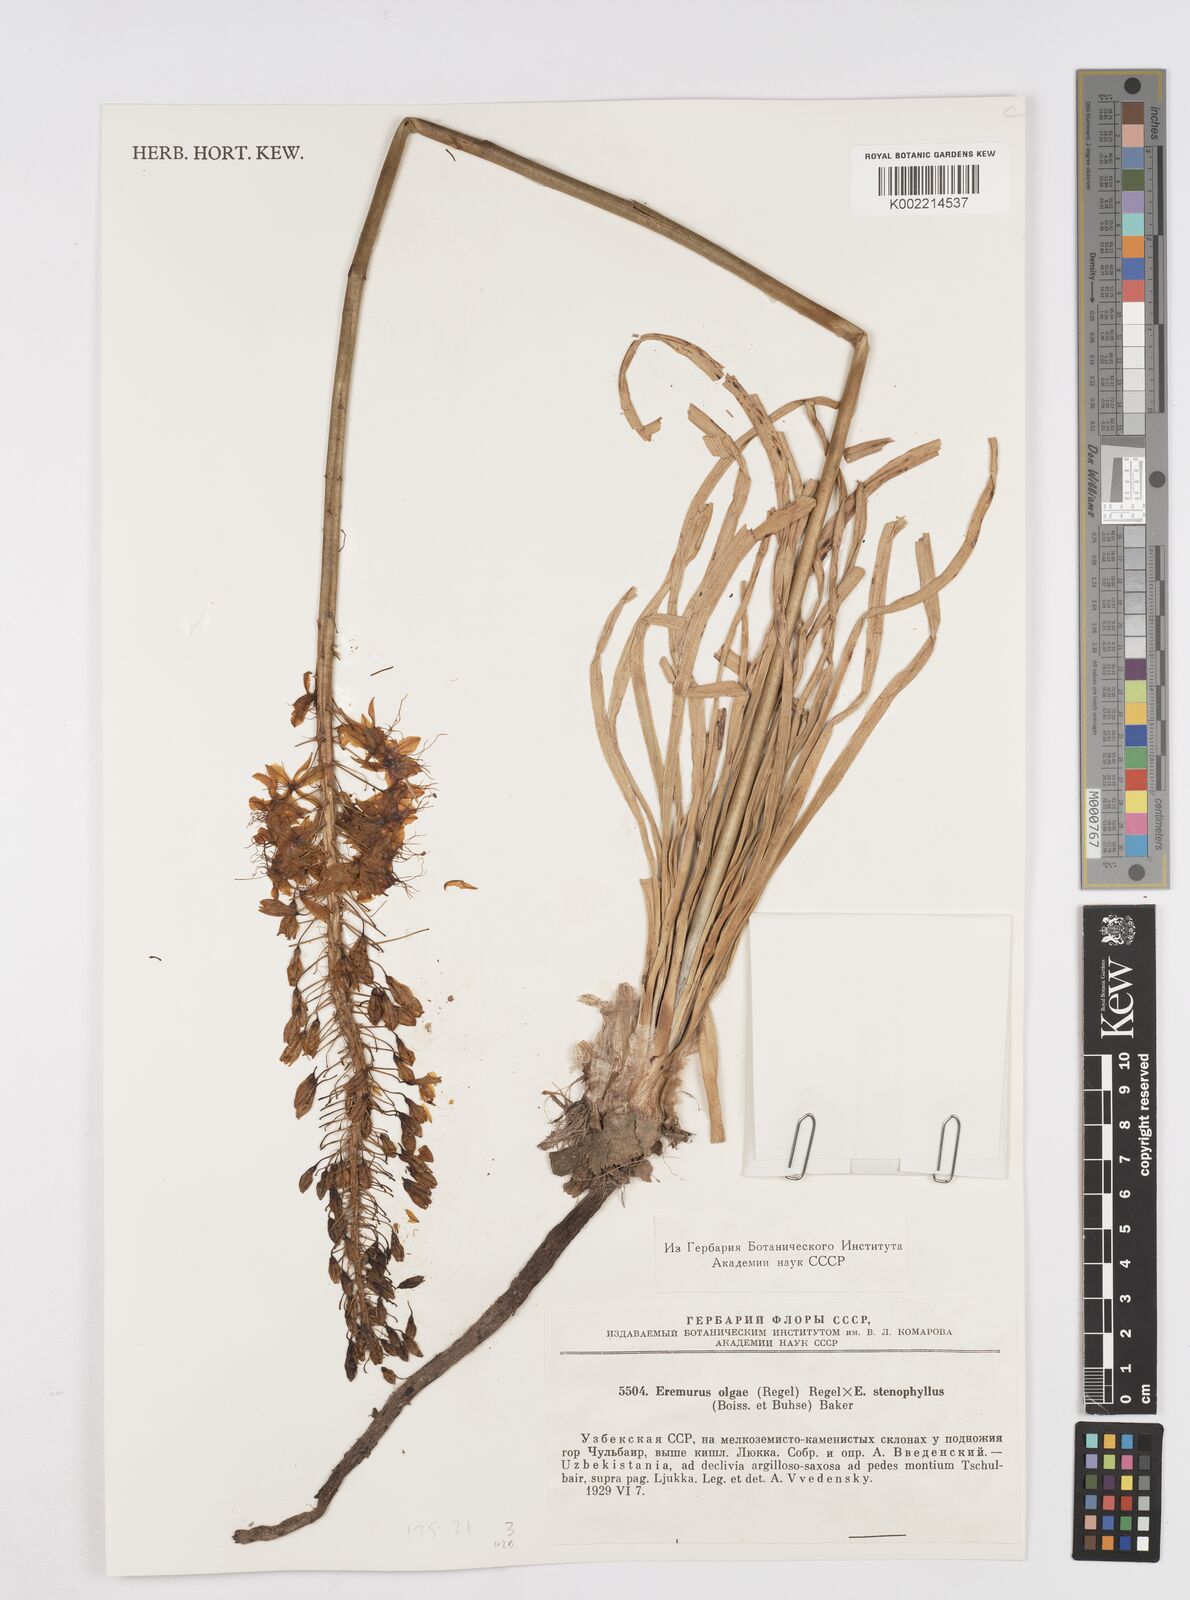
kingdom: Plantae
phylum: Tracheophyta
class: Liliopsida
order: Asparagales
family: Asphodelaceae
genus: Eremurus
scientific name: Eremurus olgae
